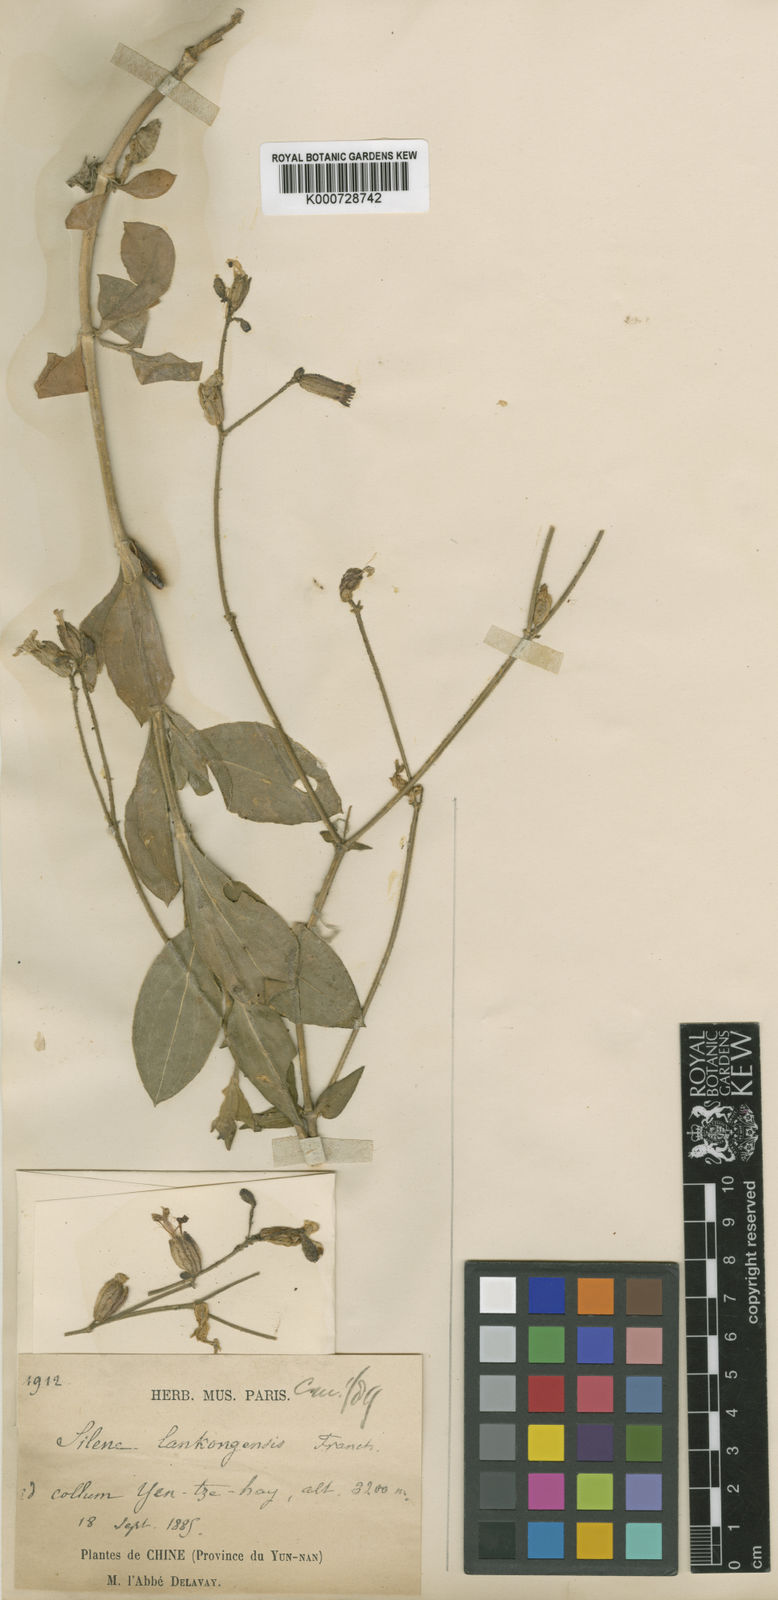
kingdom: Plantae
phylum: Tracheophyta
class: Magnoliopsida
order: Caryophyllales
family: Caryophyllaceae
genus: Silene
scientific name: Silene viscidula
